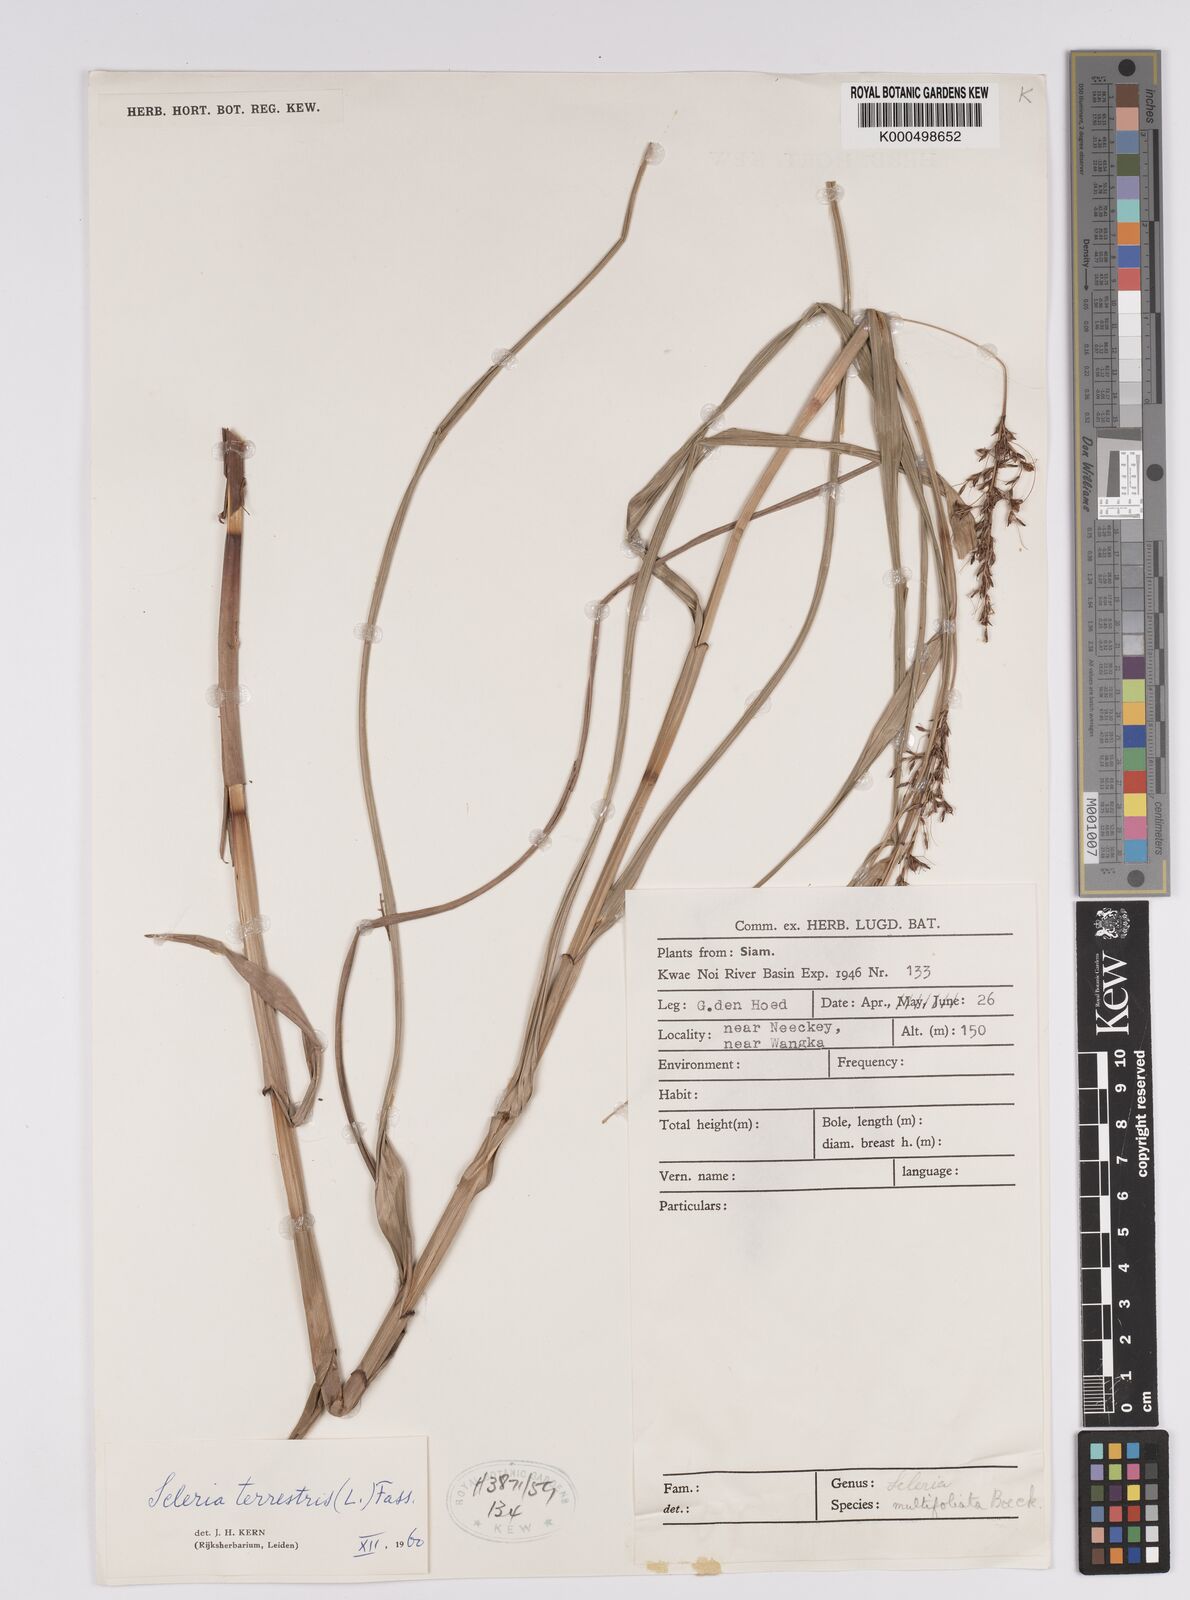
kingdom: Plantae
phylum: Tracheophyta
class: Liliopsida
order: Poales
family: Cyperaceae
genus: Scleria
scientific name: Scleria terrestris
